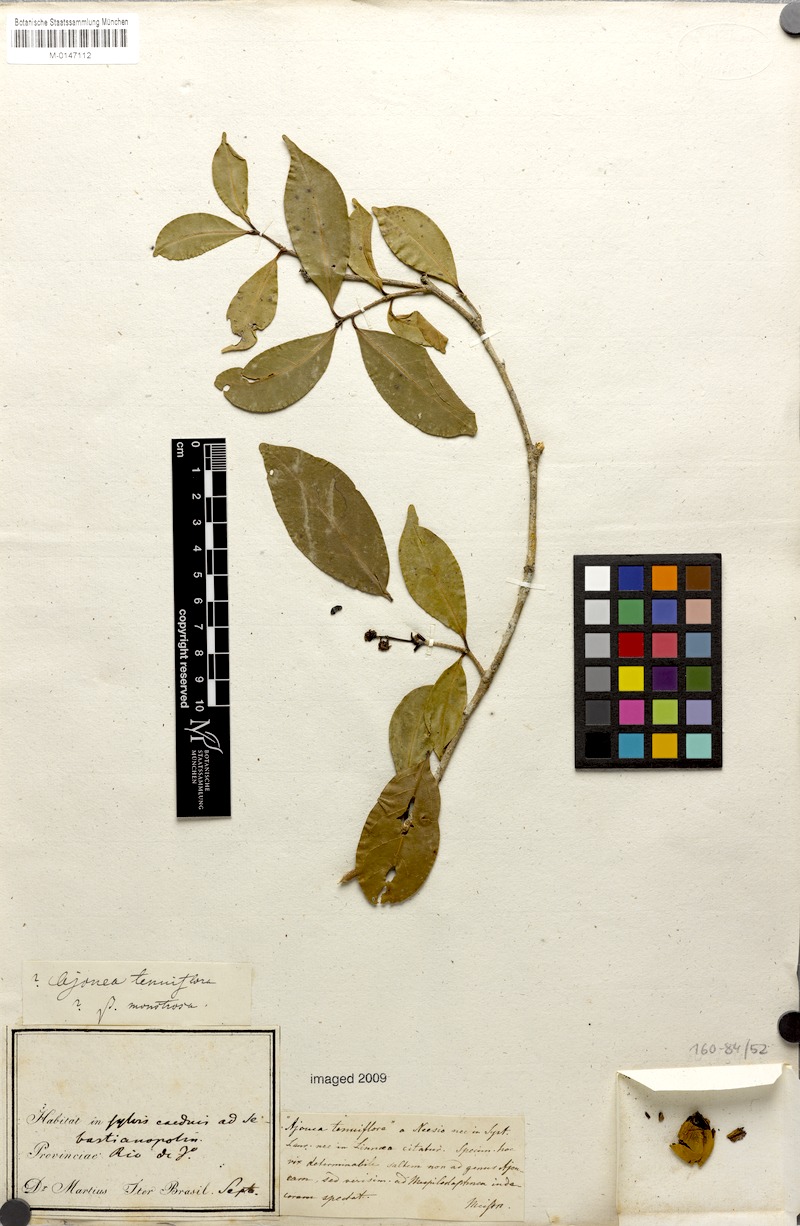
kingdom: Plantae
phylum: Tracheophyta
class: Magnoliopsida
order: Laurales
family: Lauraceae
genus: Mespilodaphne
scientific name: Mespilodaphne indecora
